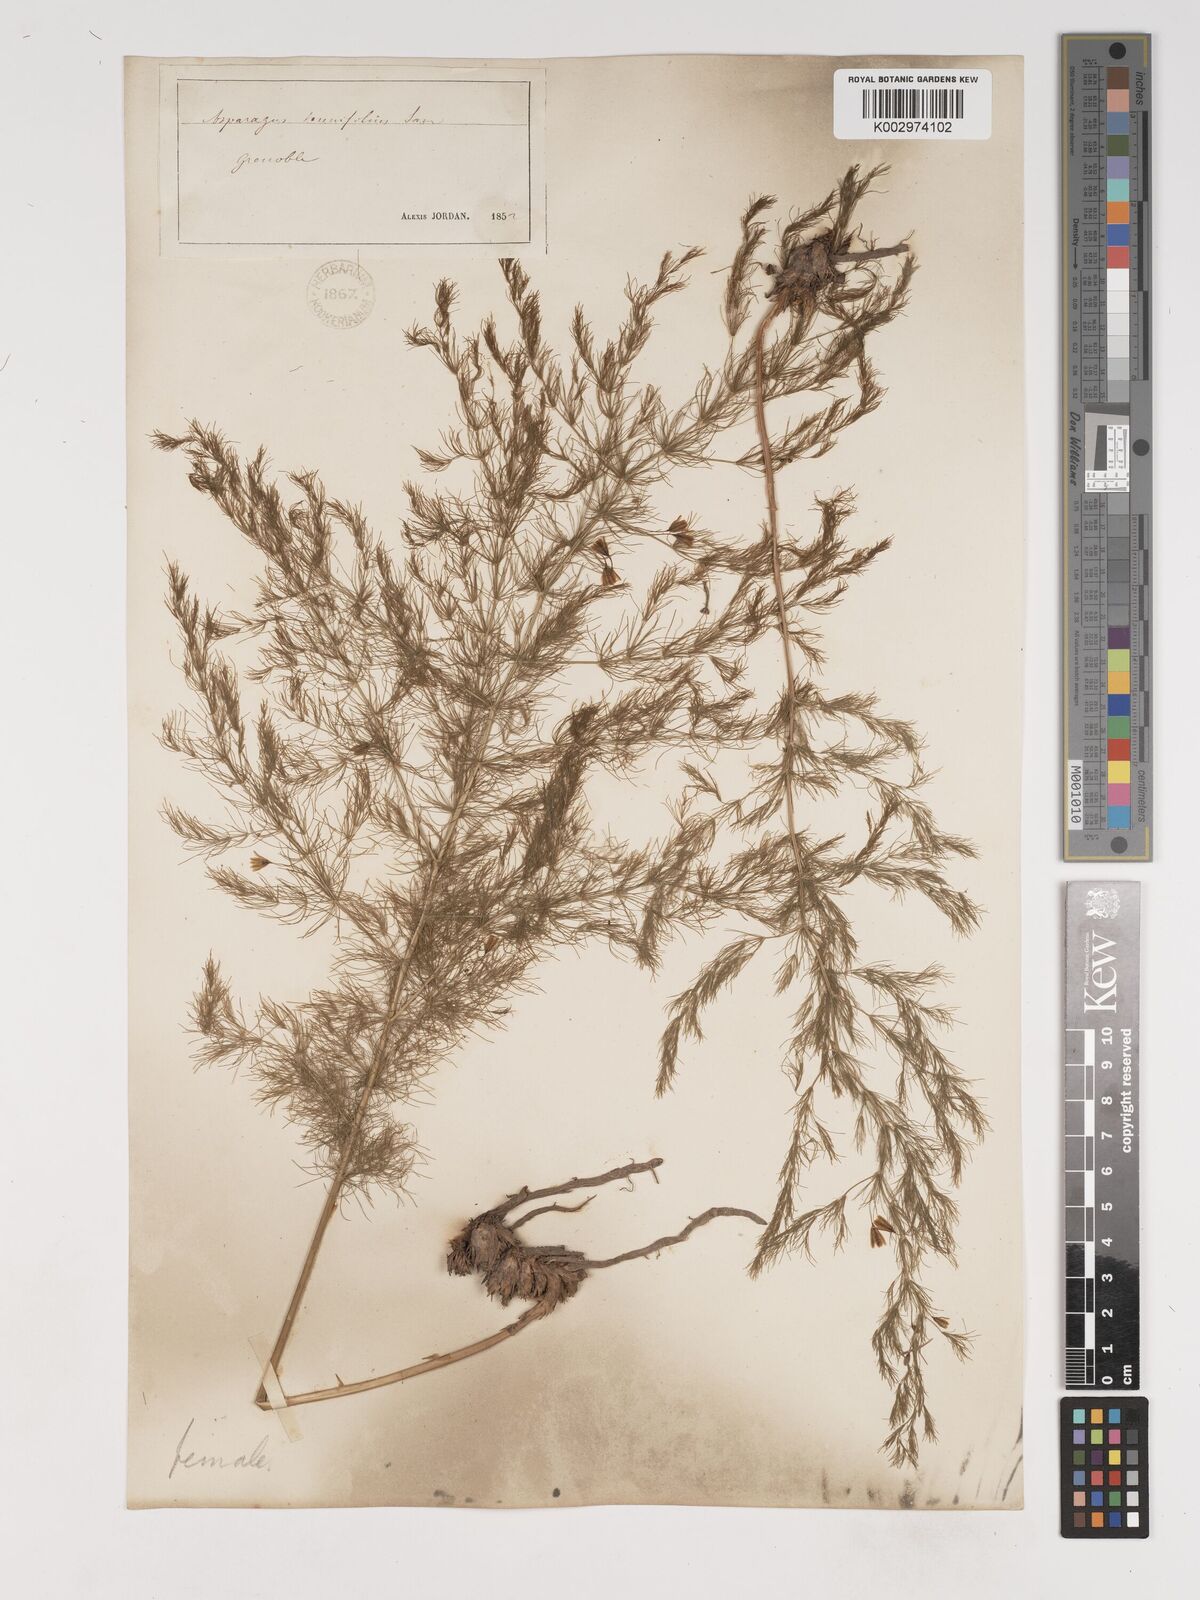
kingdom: Plantae
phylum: Tracheophyta
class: Liliopsida
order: Asparagales
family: Asparagaceae
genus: Asparagus
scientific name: Asparagus tenuifolius
